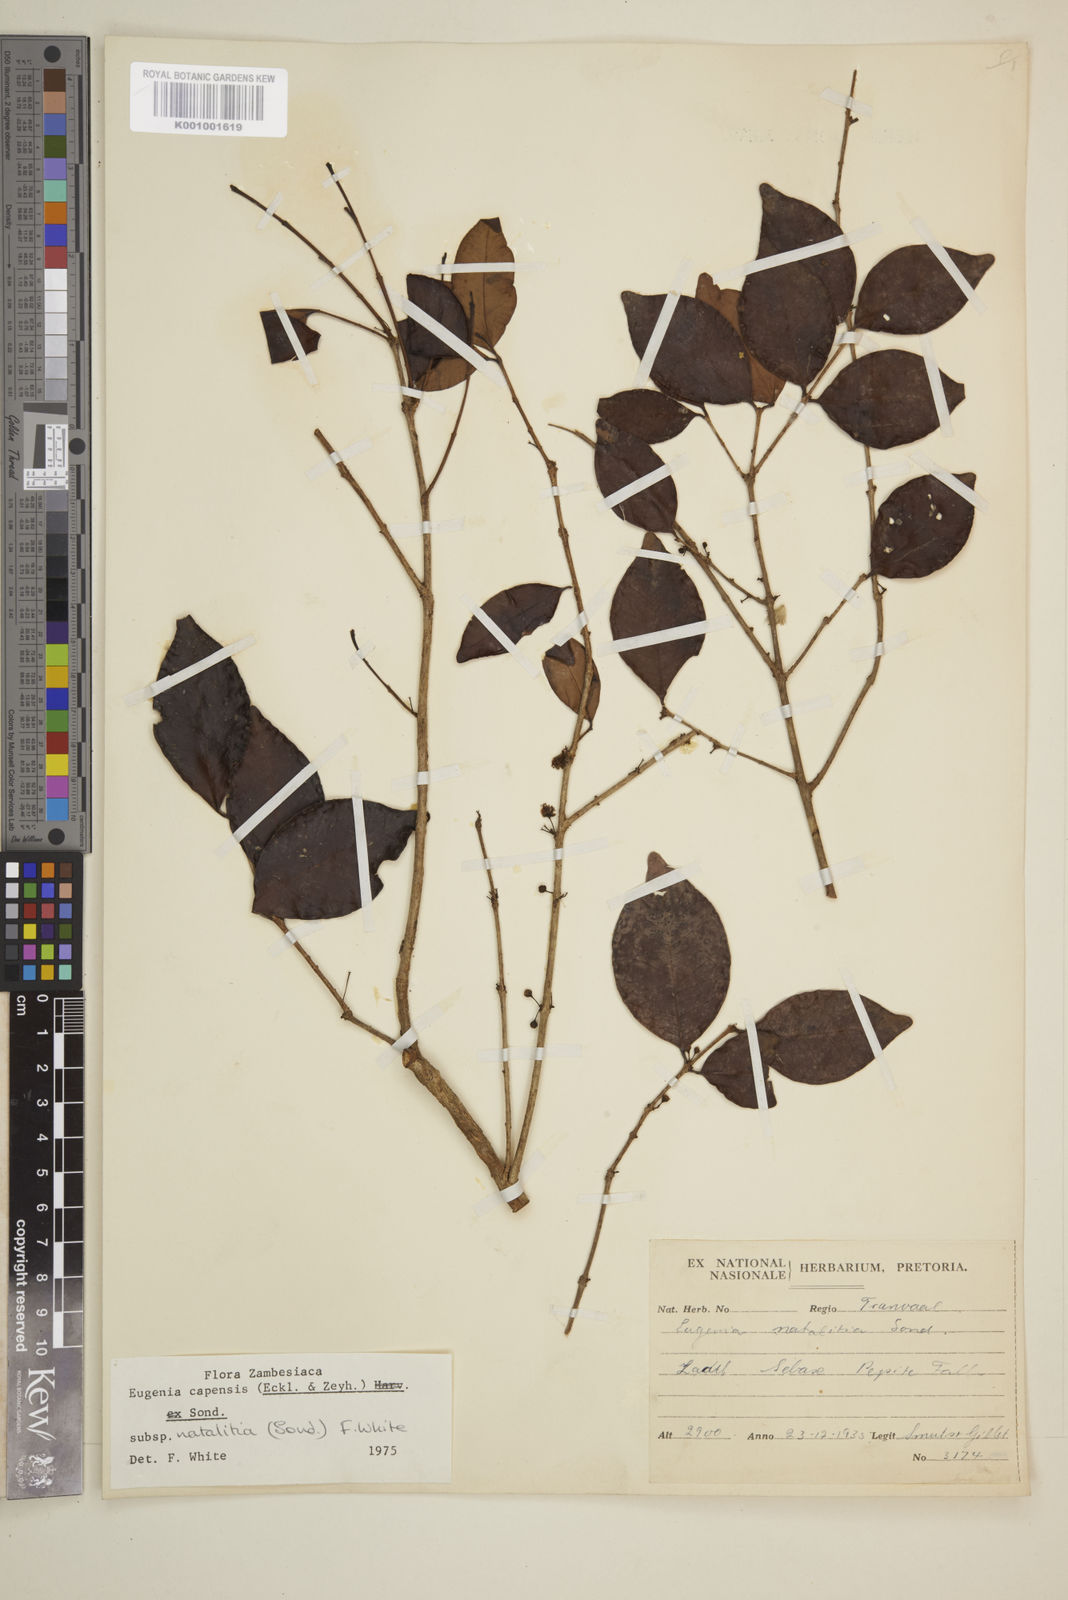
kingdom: Plantae
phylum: Tracheophyta
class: Magnoliopsida
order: Myrtales
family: Myrtaceae
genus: Eugenia
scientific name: Eugenia natalitia
